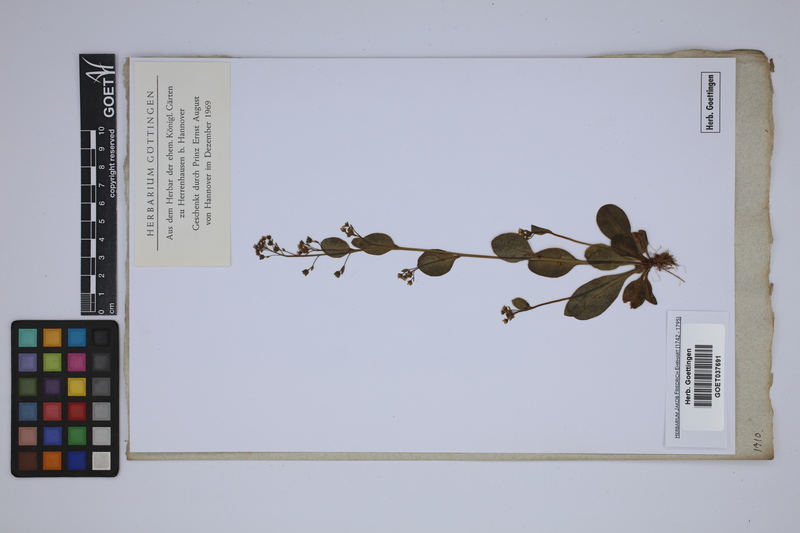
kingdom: Plantae
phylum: Tracheophyta
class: Magnoliopsida
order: Ericales
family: Primulaceae
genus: Samolus
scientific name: Samolus valerandi
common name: Brookweed
